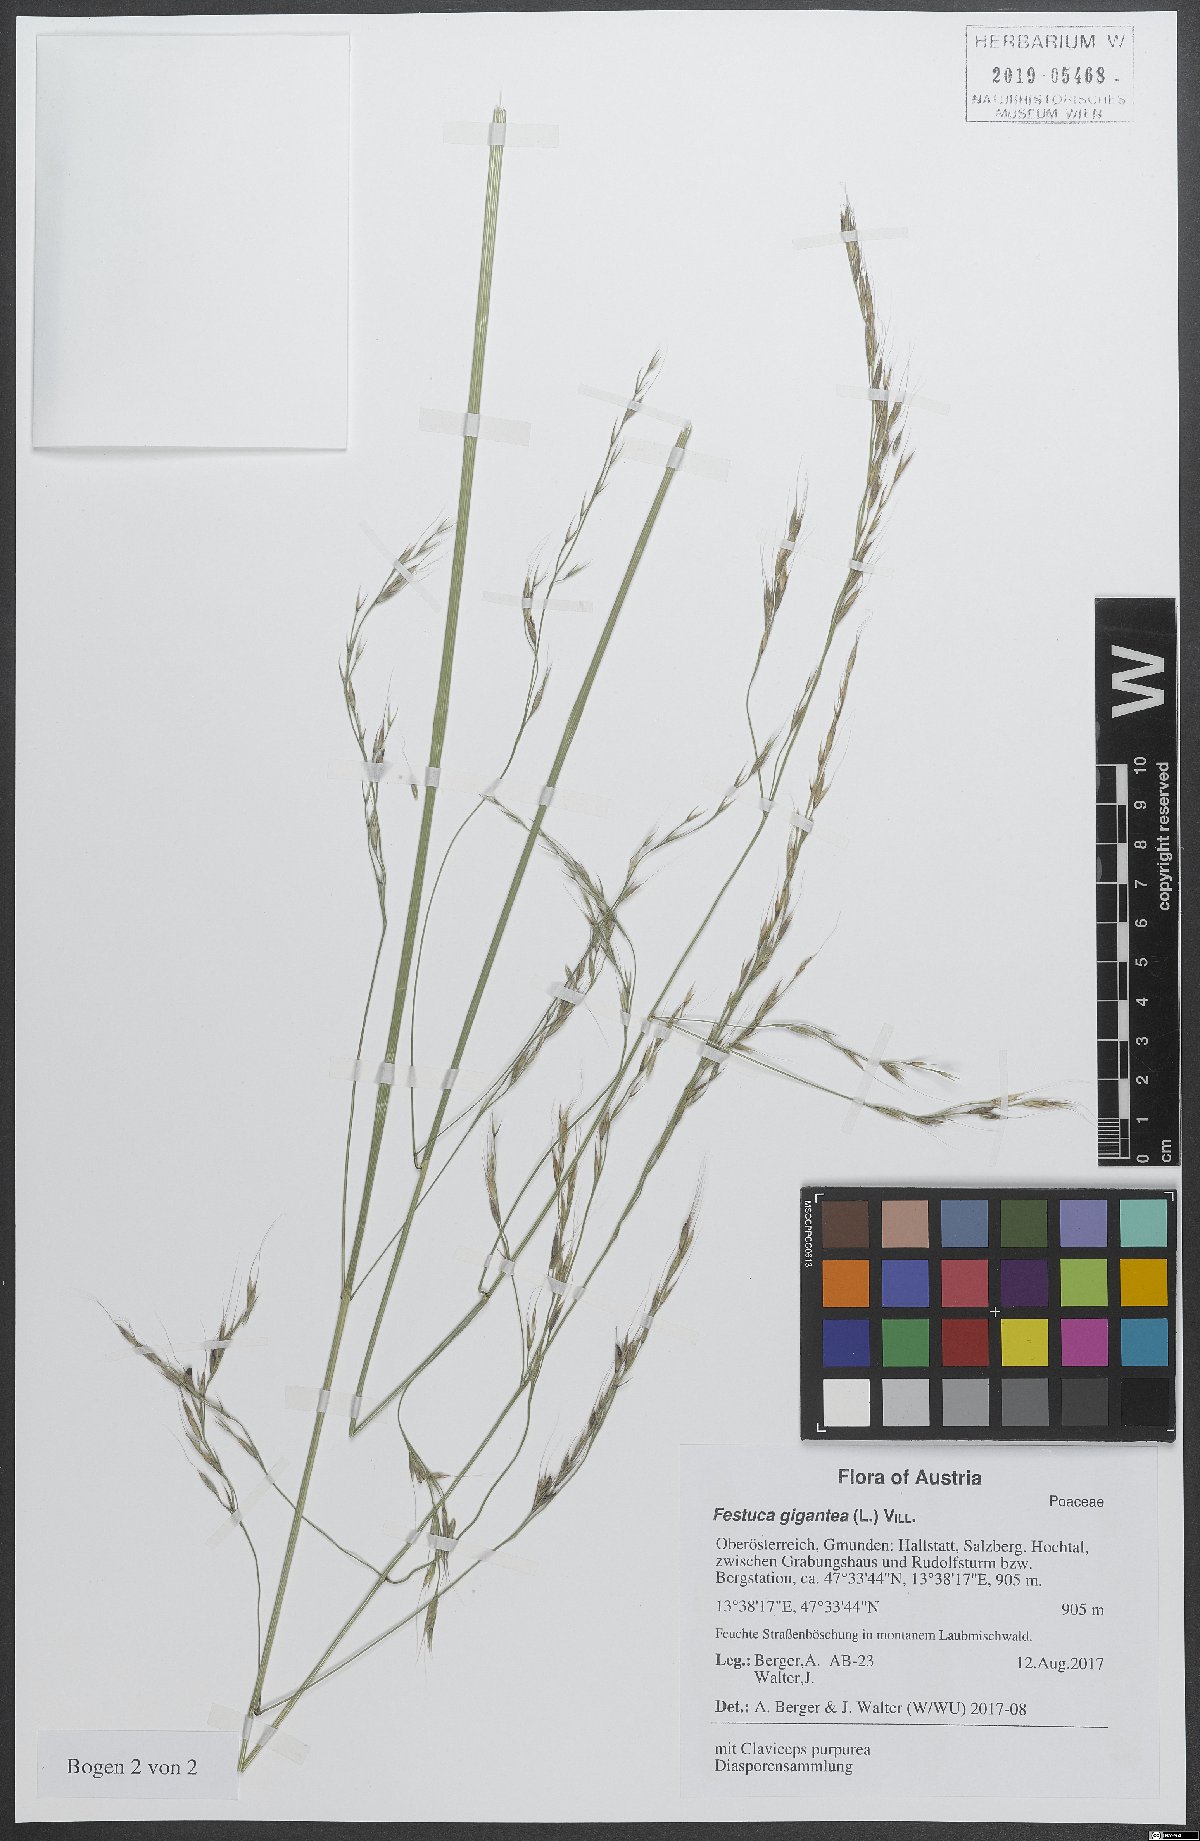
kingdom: Plantae
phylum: Tracheophyta
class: Liliopsida
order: Poales
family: Poaceae
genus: Lolium
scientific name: Lolium giganteum
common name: Giant fescue
